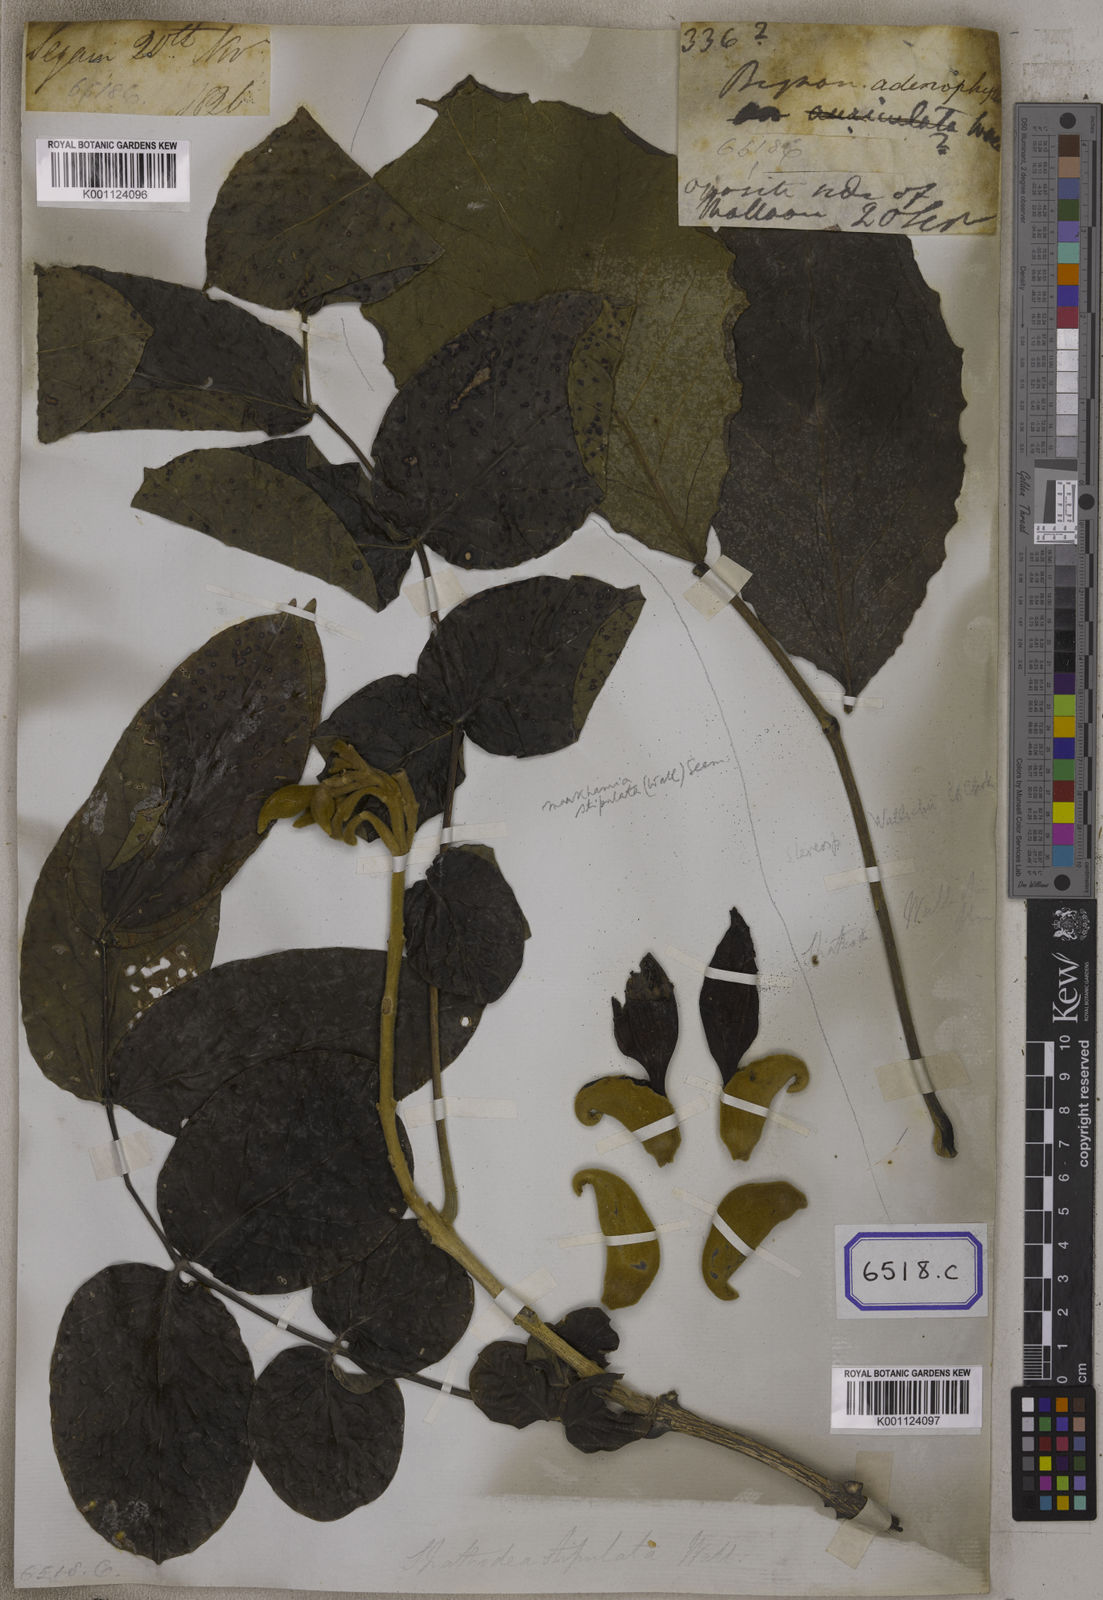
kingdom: Plantae
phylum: Tracheophyta
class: Magnoliopsida
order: Lamiales
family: Bignoniaceae
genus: Markhamia
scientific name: Markhamia stipulata
